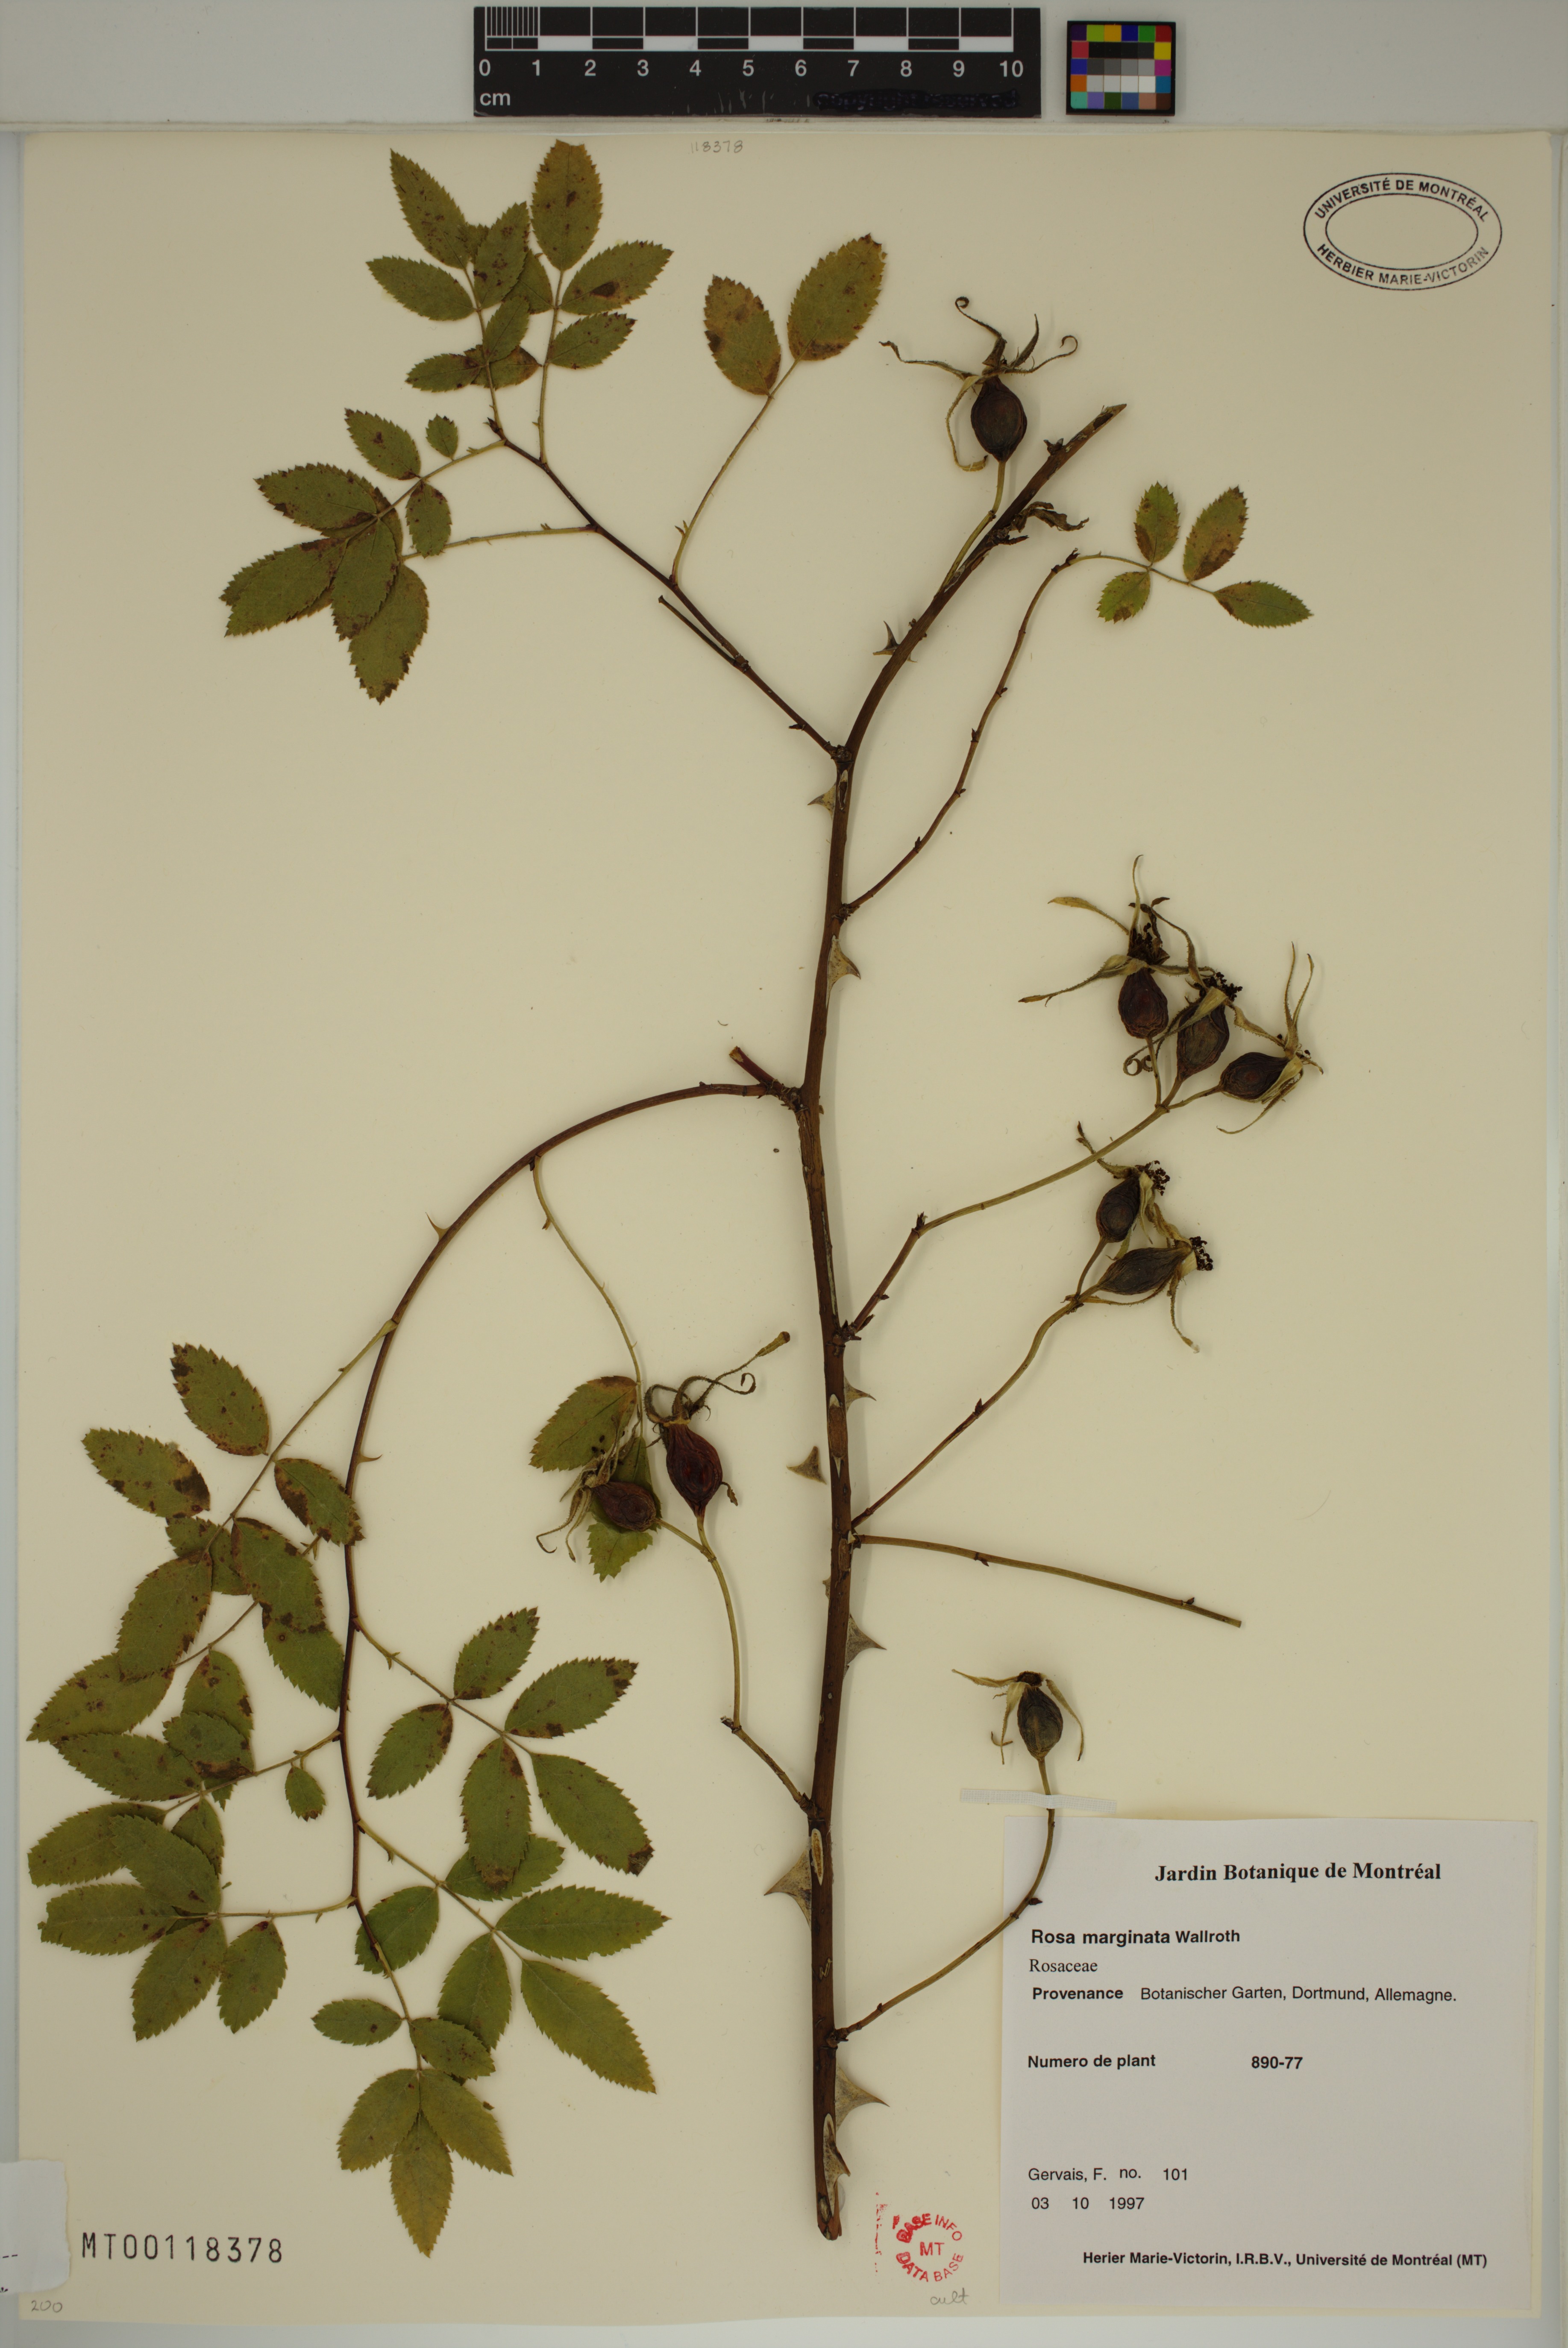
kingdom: Plantae
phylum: Tracheophyta
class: Magnoliopsida
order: Rosales
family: Rosaceae
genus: Rosa
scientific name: Rosa marginata
